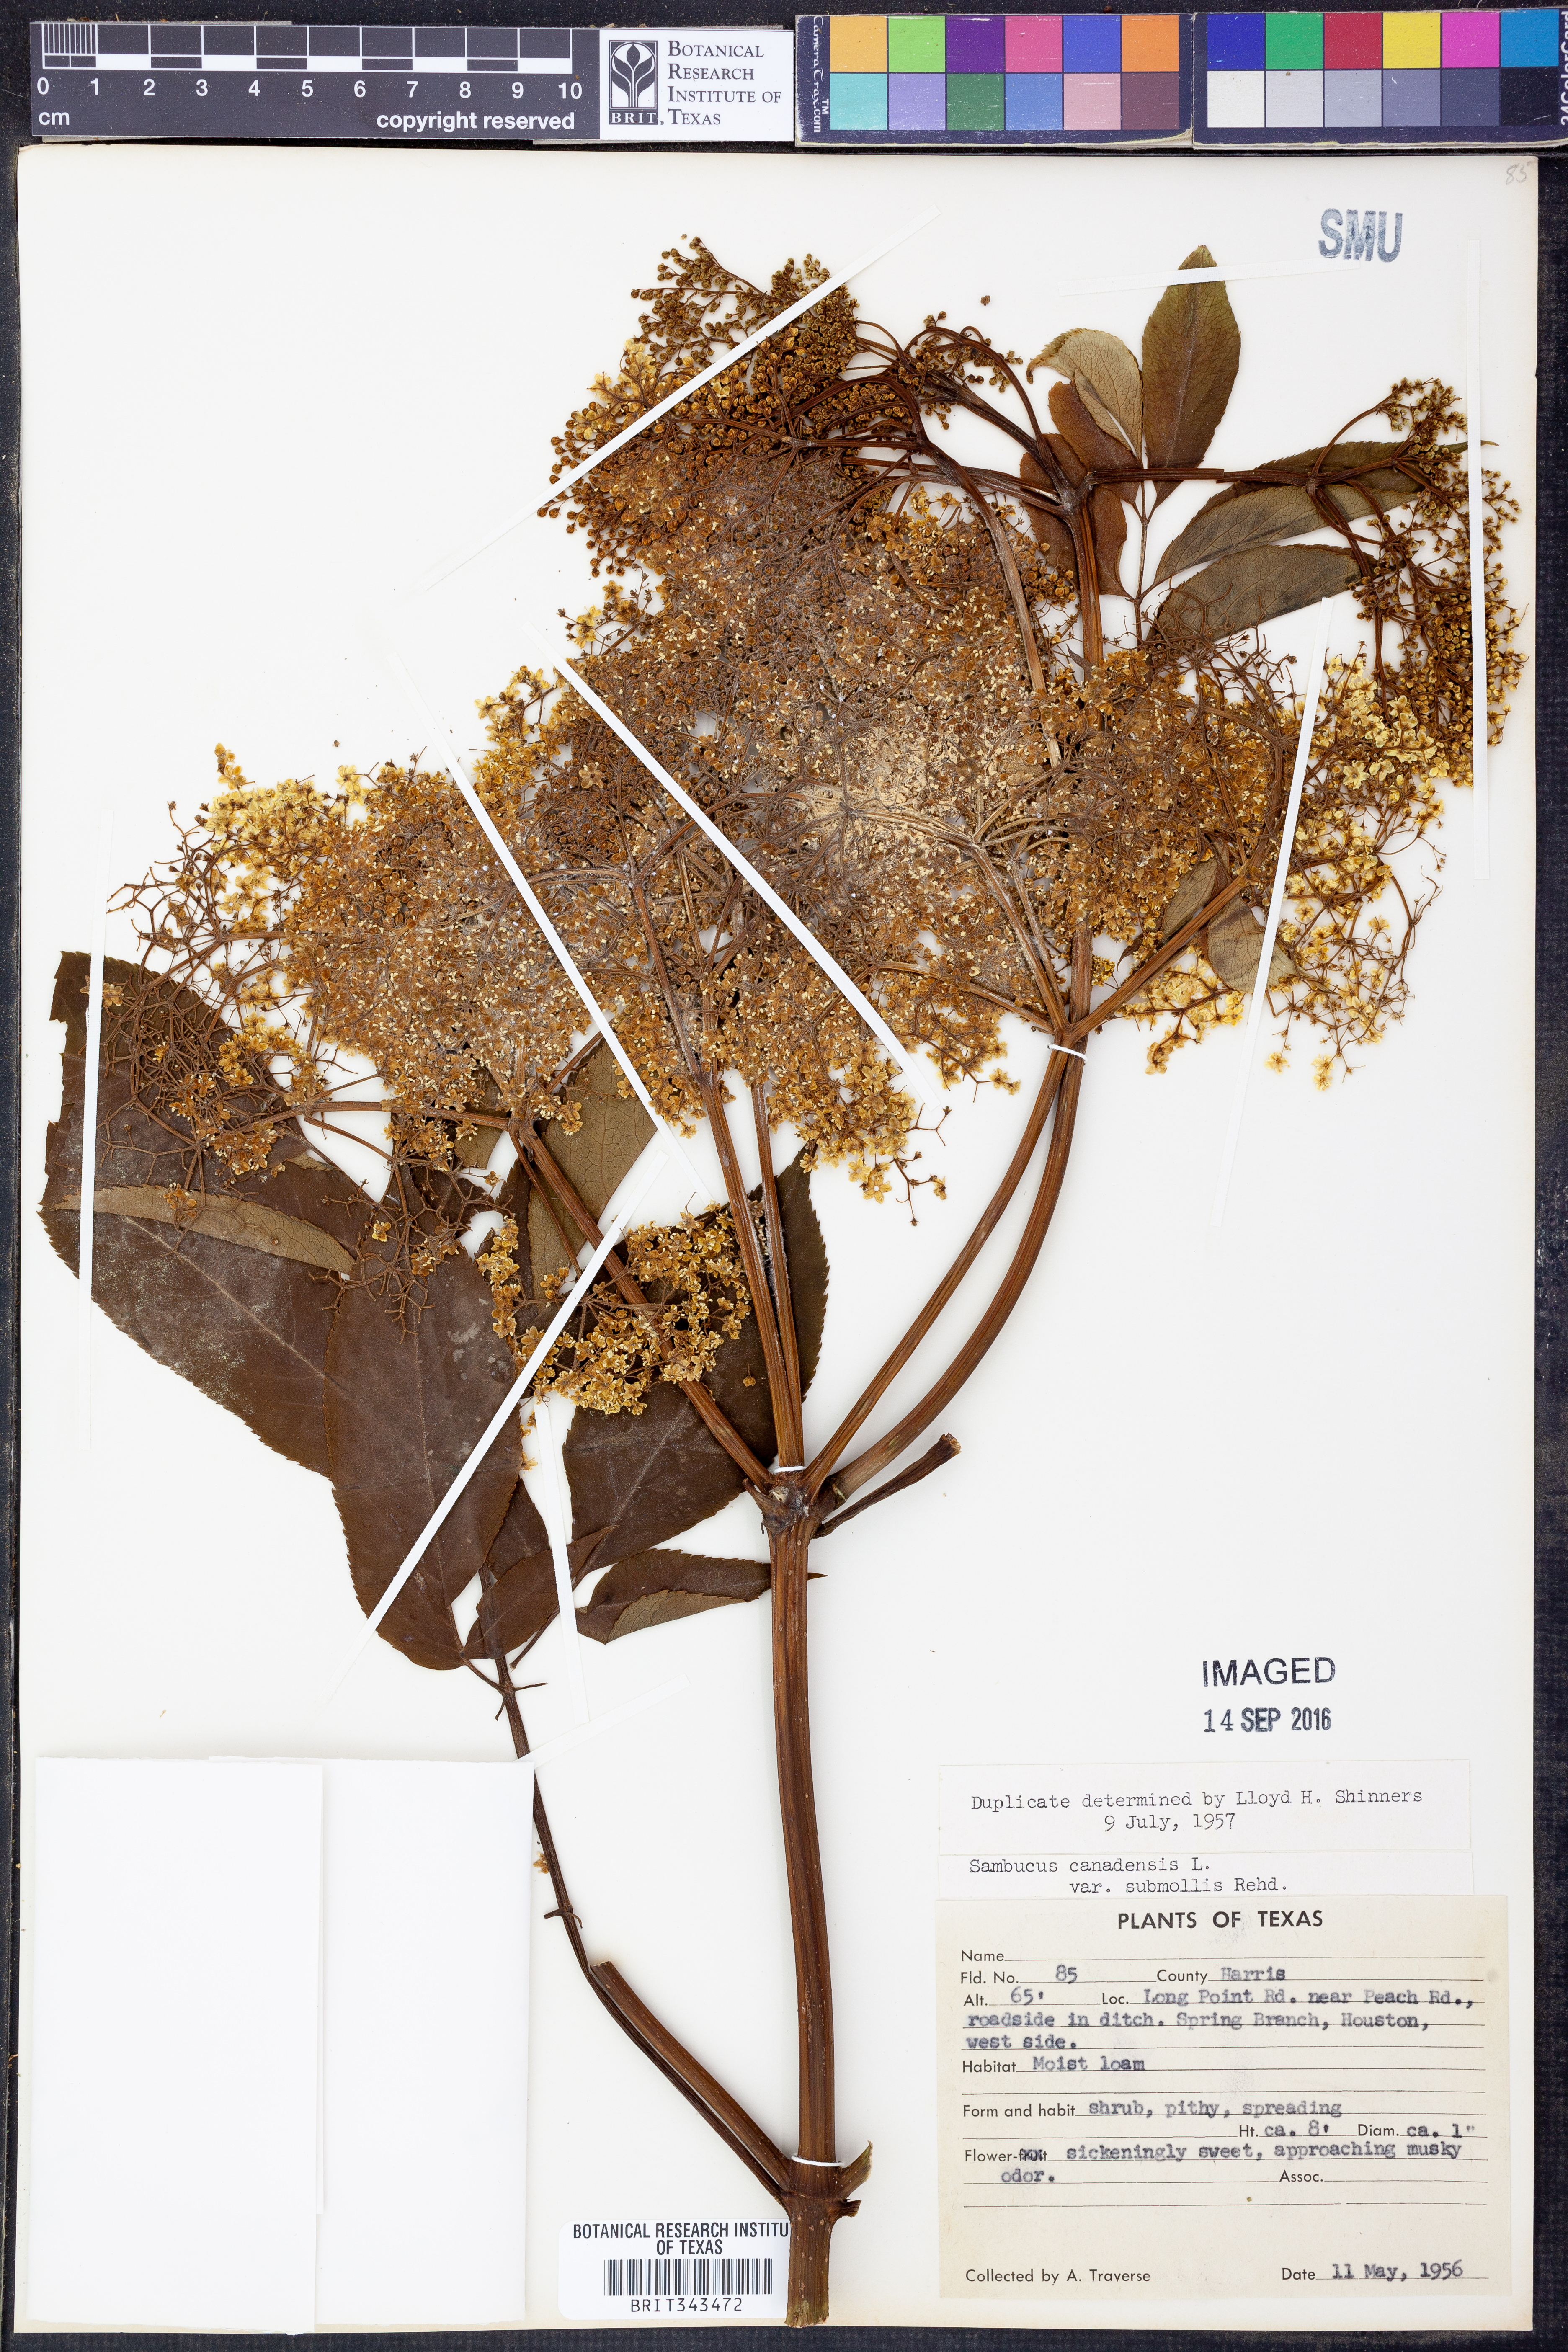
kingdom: Plantae
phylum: Tracheophyta
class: Magnoliopsida
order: Dipsacales
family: Viburnaceae
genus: Sambucus
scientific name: Sambucus canadensis
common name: American elder
